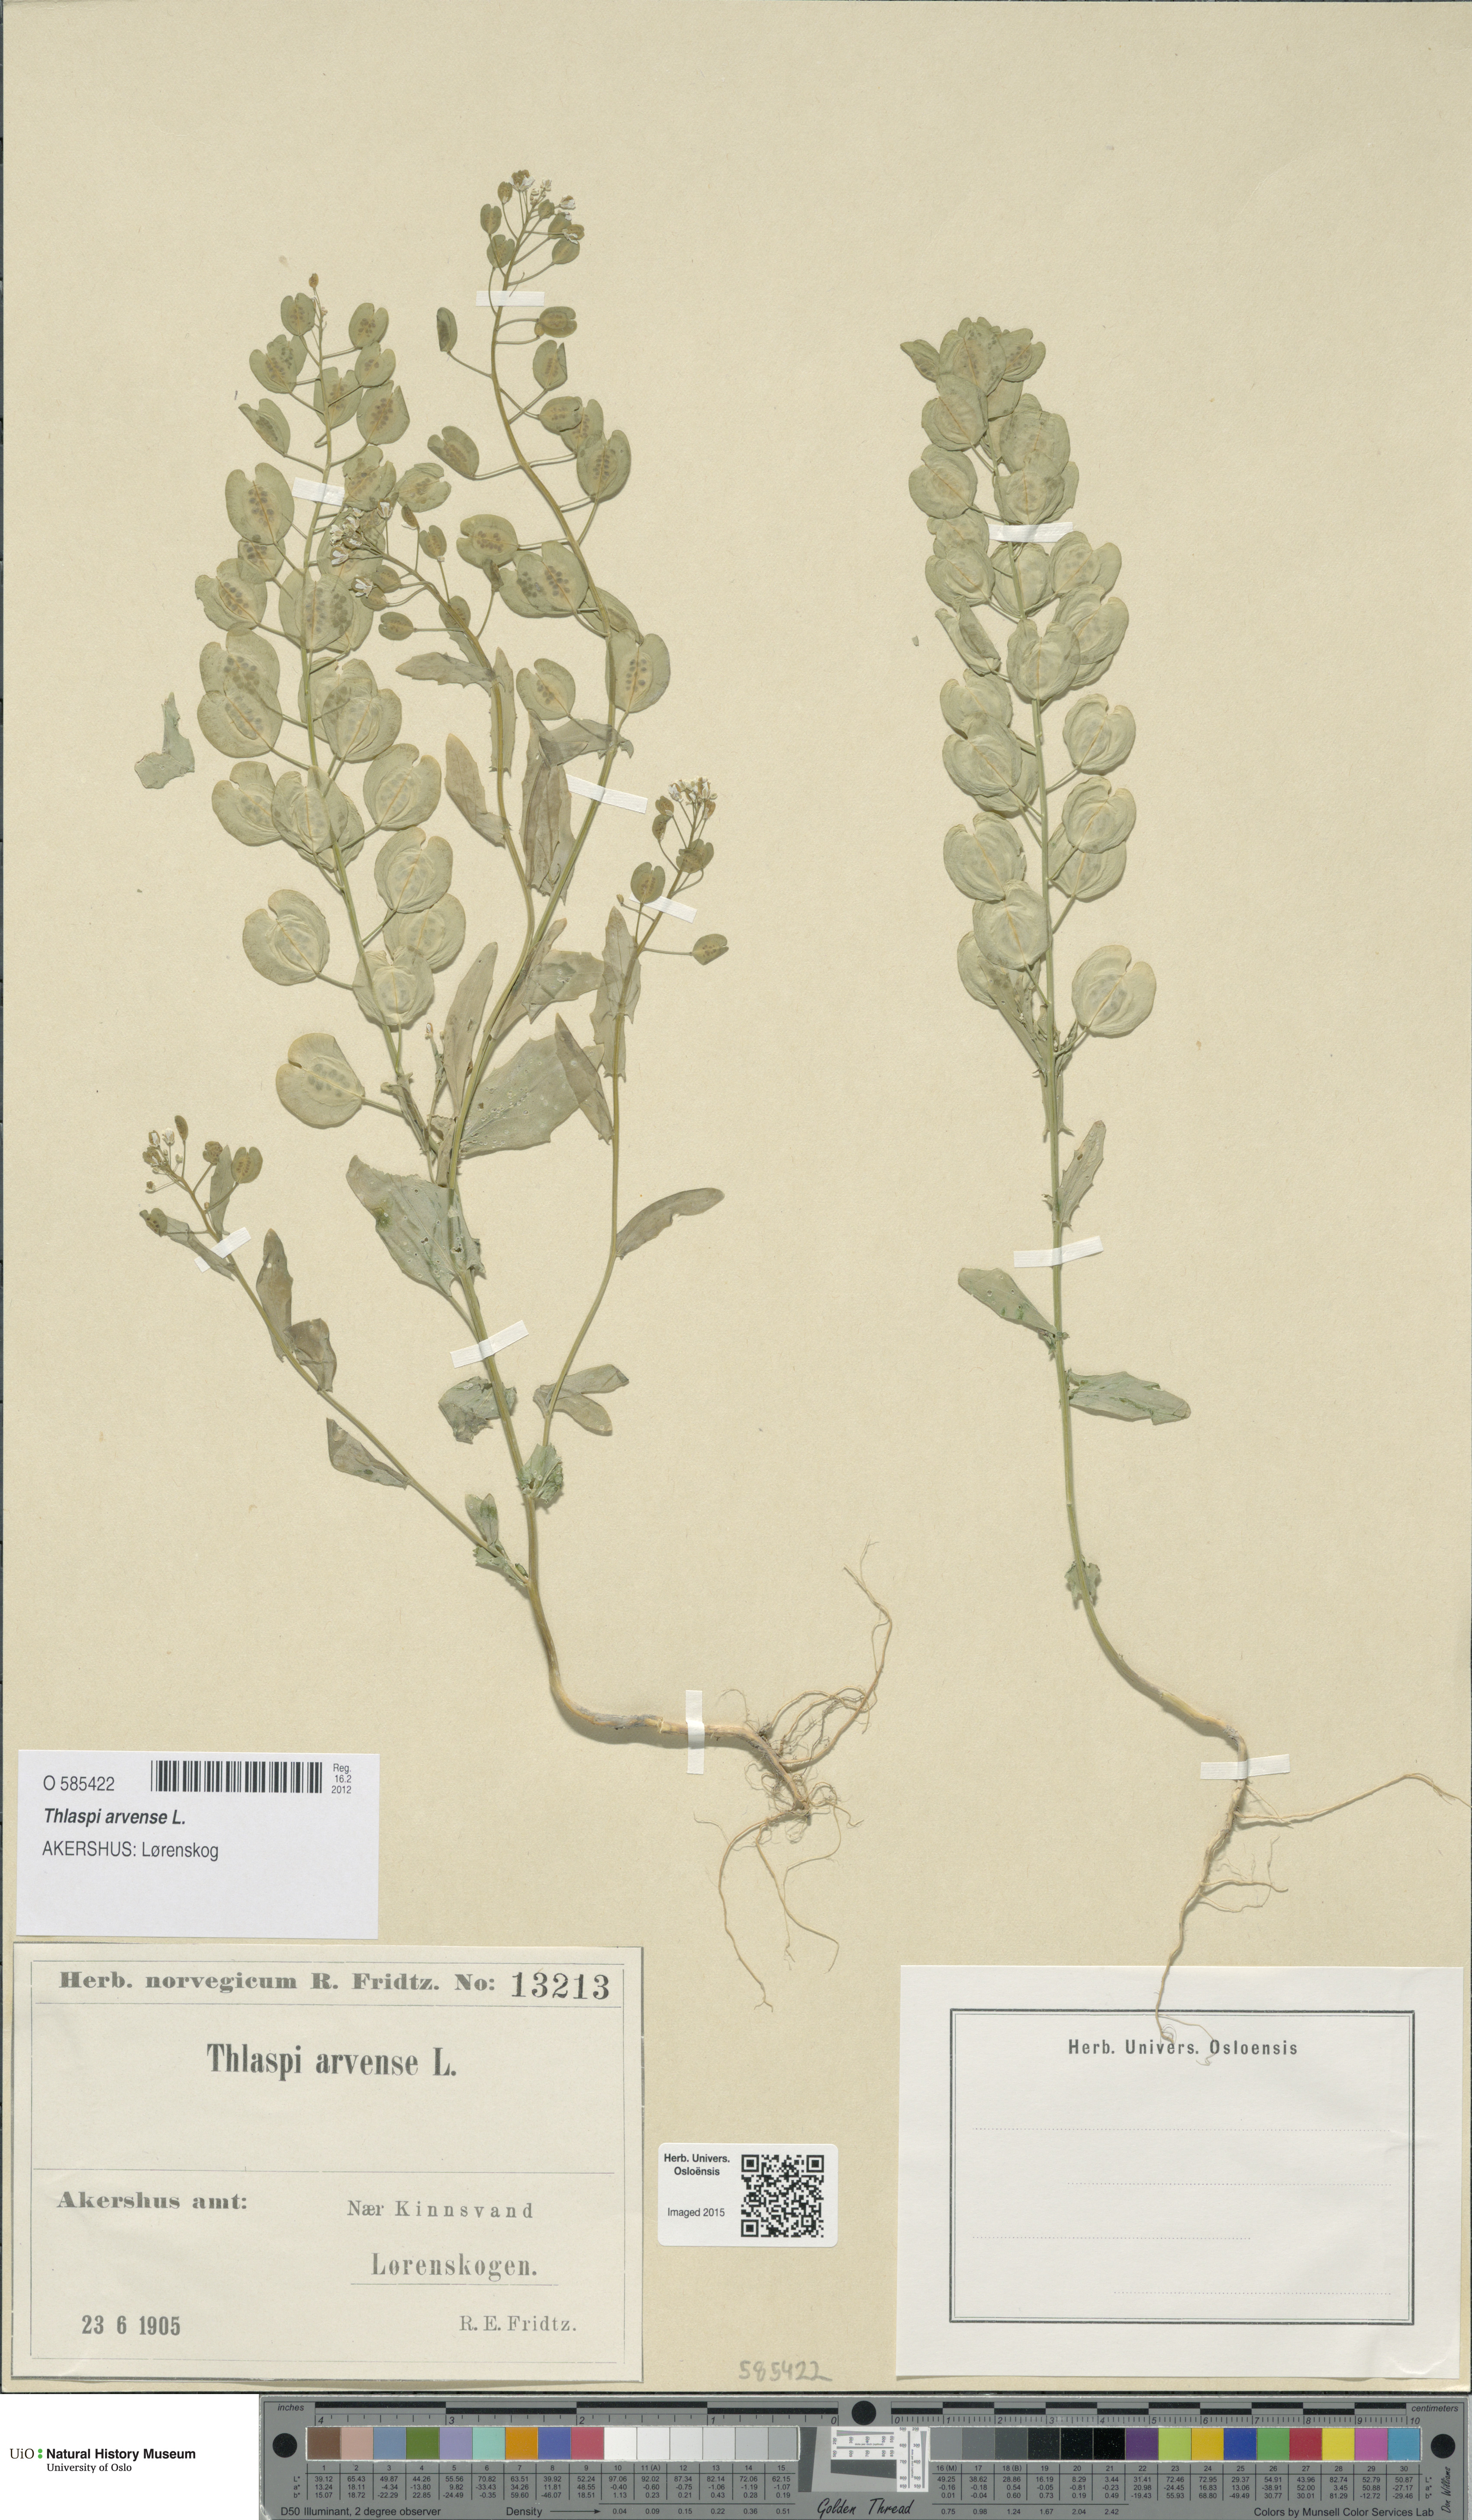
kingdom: Plantae
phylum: Tracheophyta
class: Magnoliopsida
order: Brassicales
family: Brassicaceae
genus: Thlaspi
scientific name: Thlaspi arvense
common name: Field pennycress
